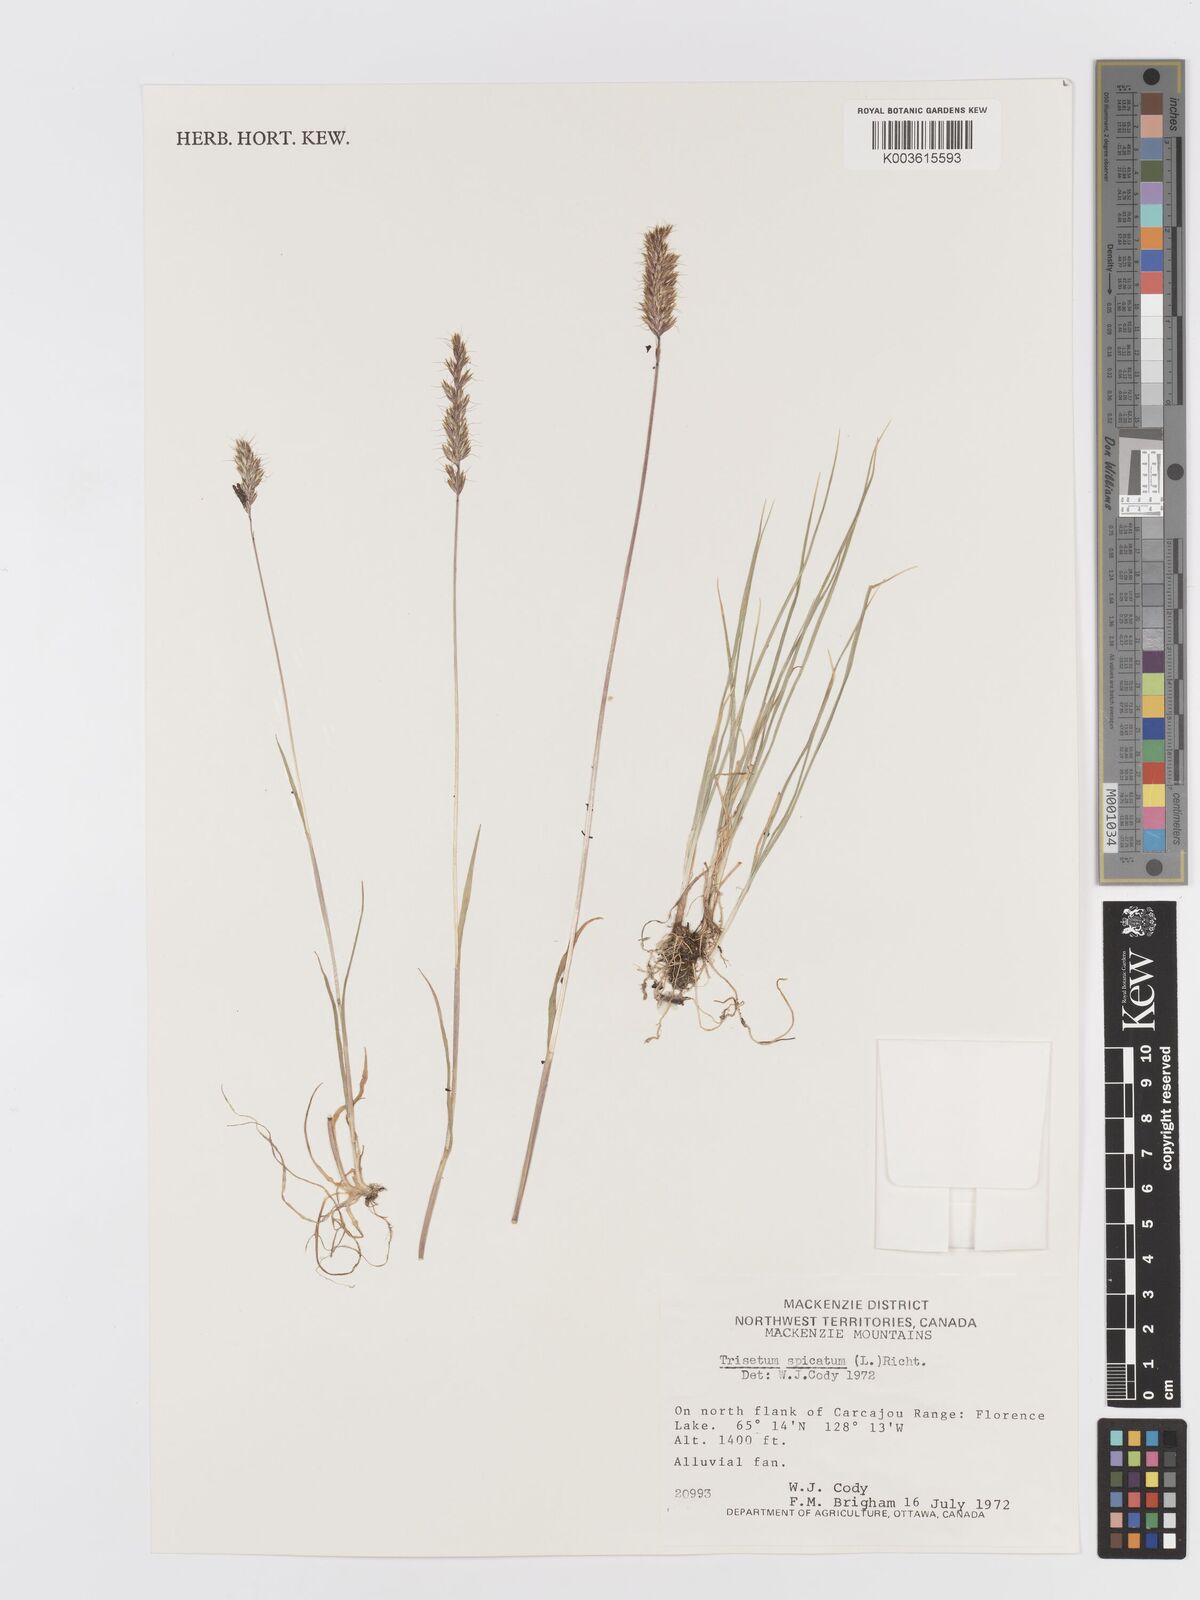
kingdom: Plantae
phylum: Tracheophyta
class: Liliopsida
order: Poales
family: Poaceae
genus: Koeleria
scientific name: Koeleria spicata
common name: Mountain trisetum
